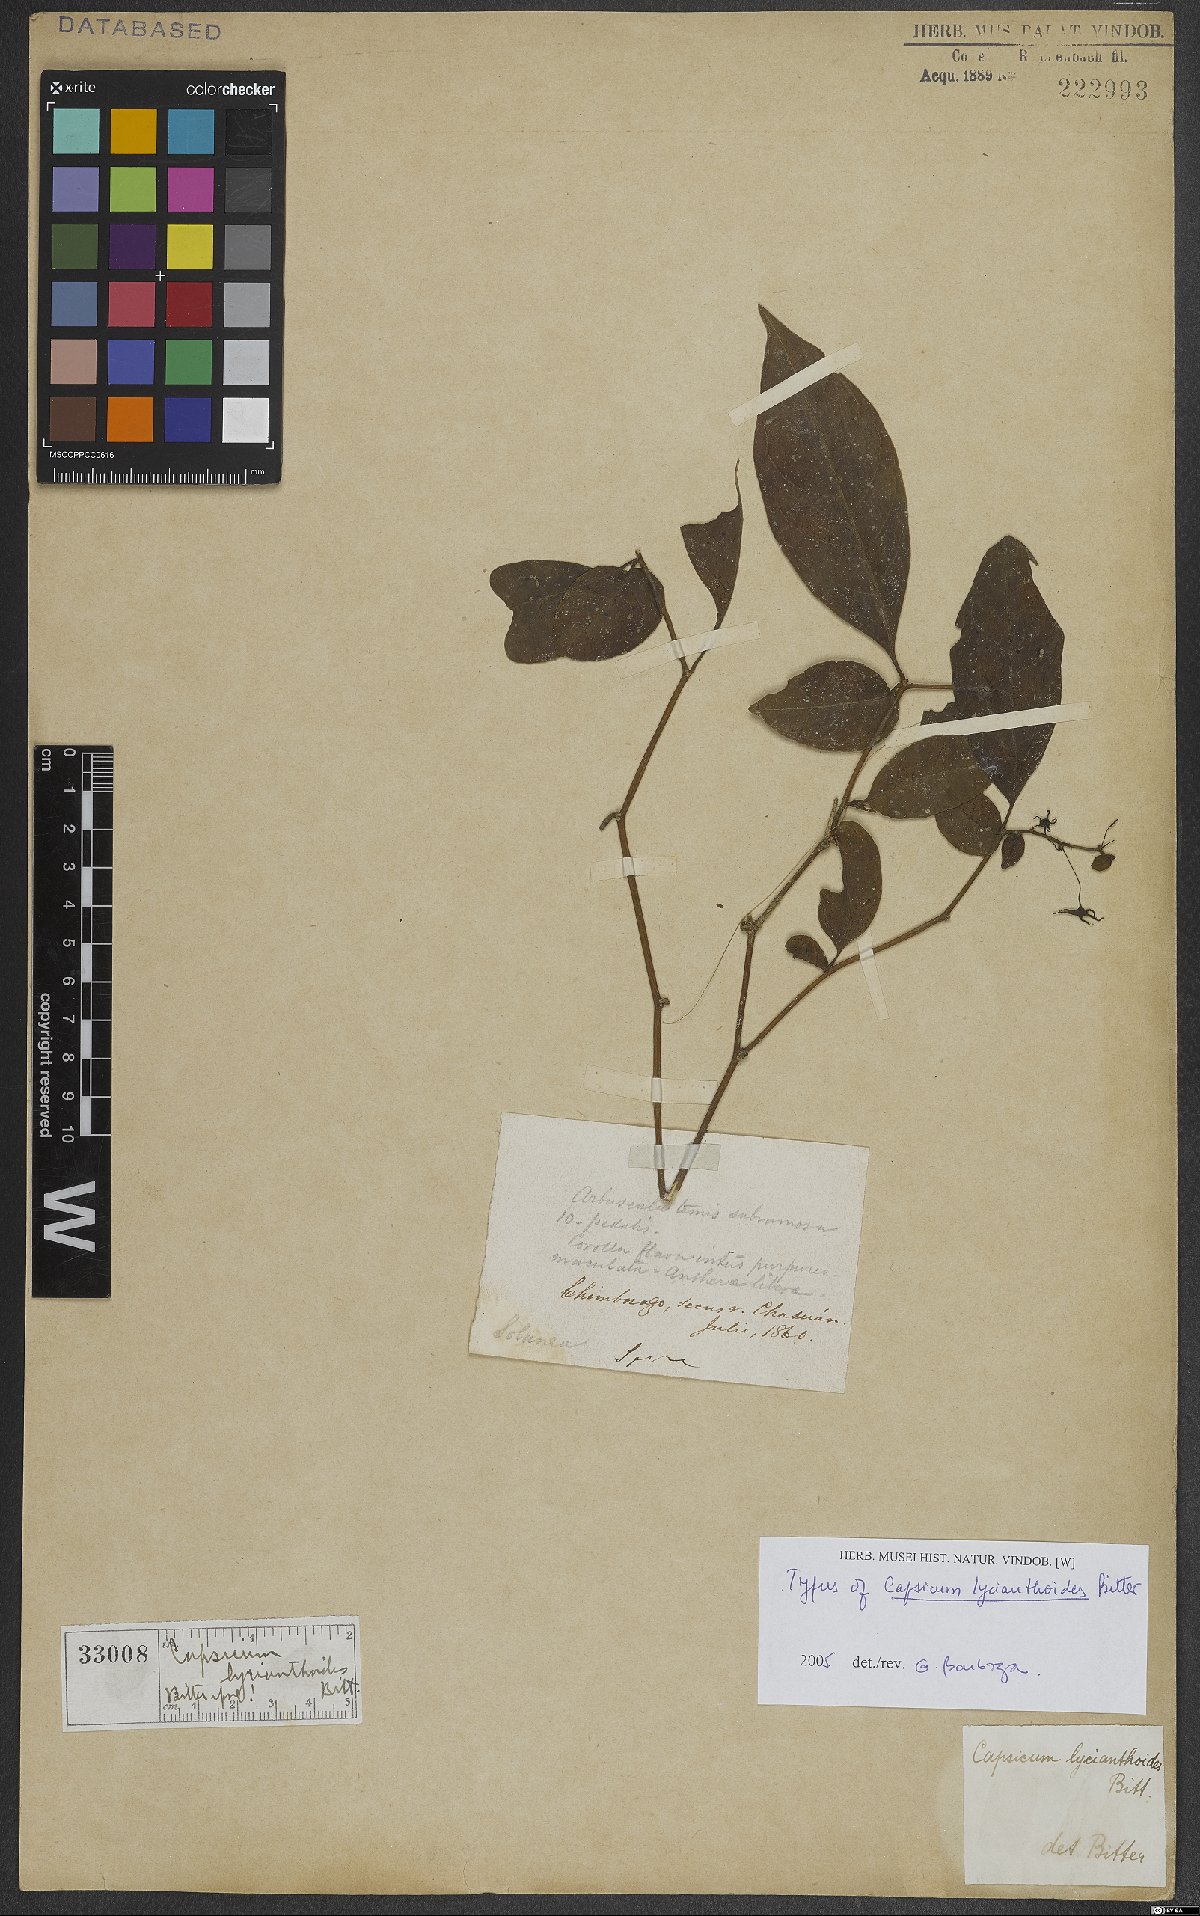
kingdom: Plantae
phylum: Tracheophyta
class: Magnoliopsida
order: Solanales
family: Solanaceae
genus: Capsicum
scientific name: Capsicum lycianthoides
